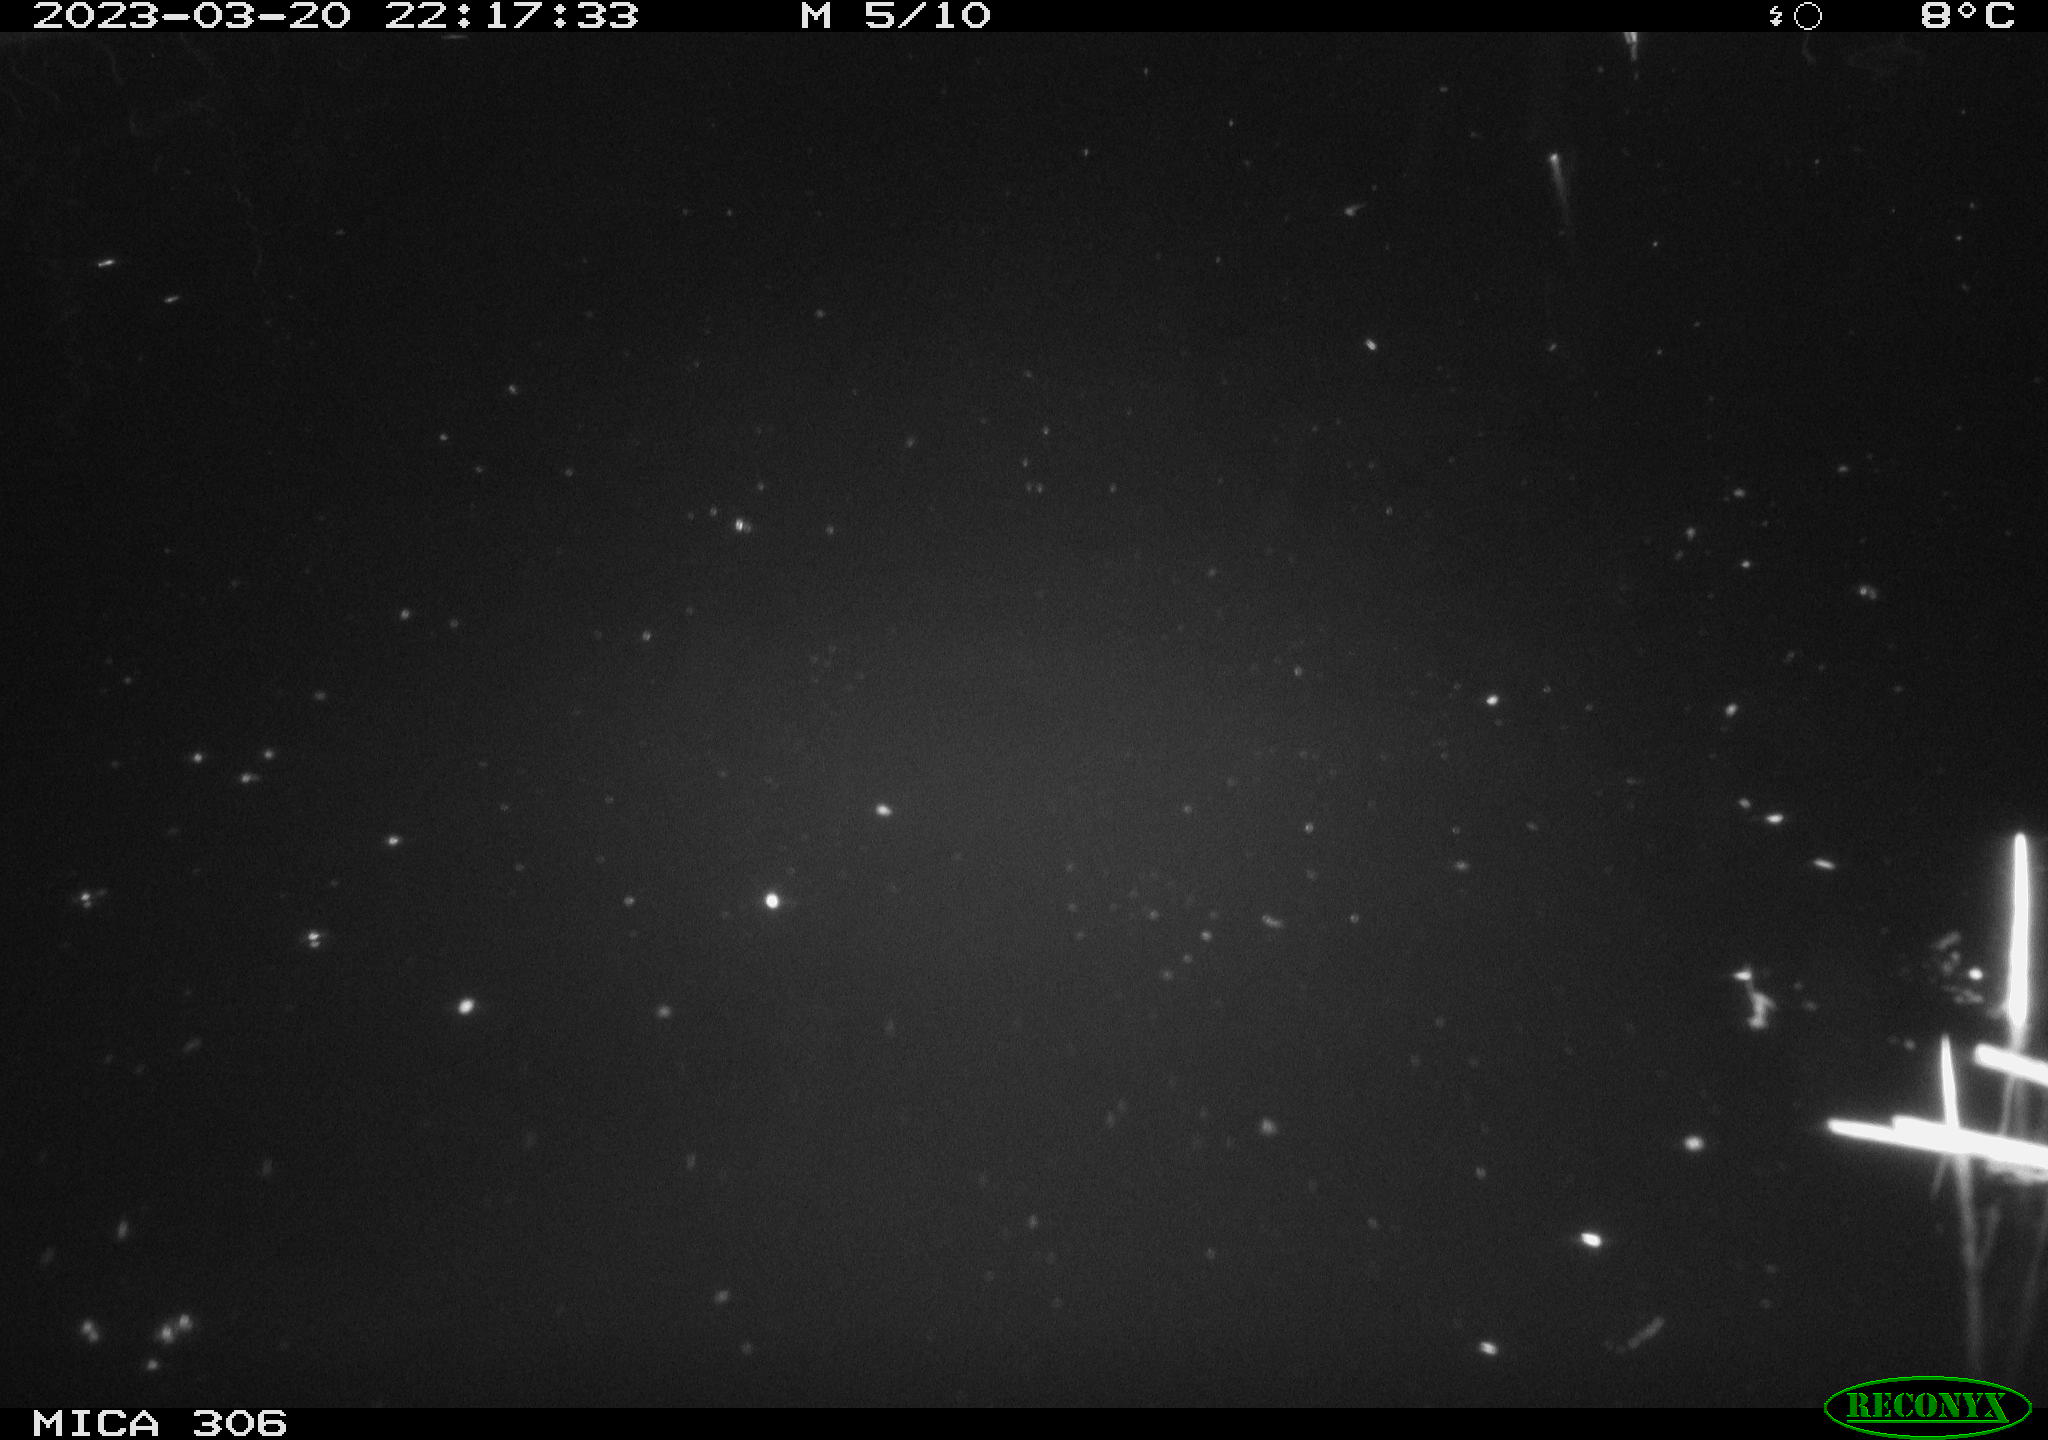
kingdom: Animalia
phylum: Chordata
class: Mammalia
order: Rodentia
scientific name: Rodentia
